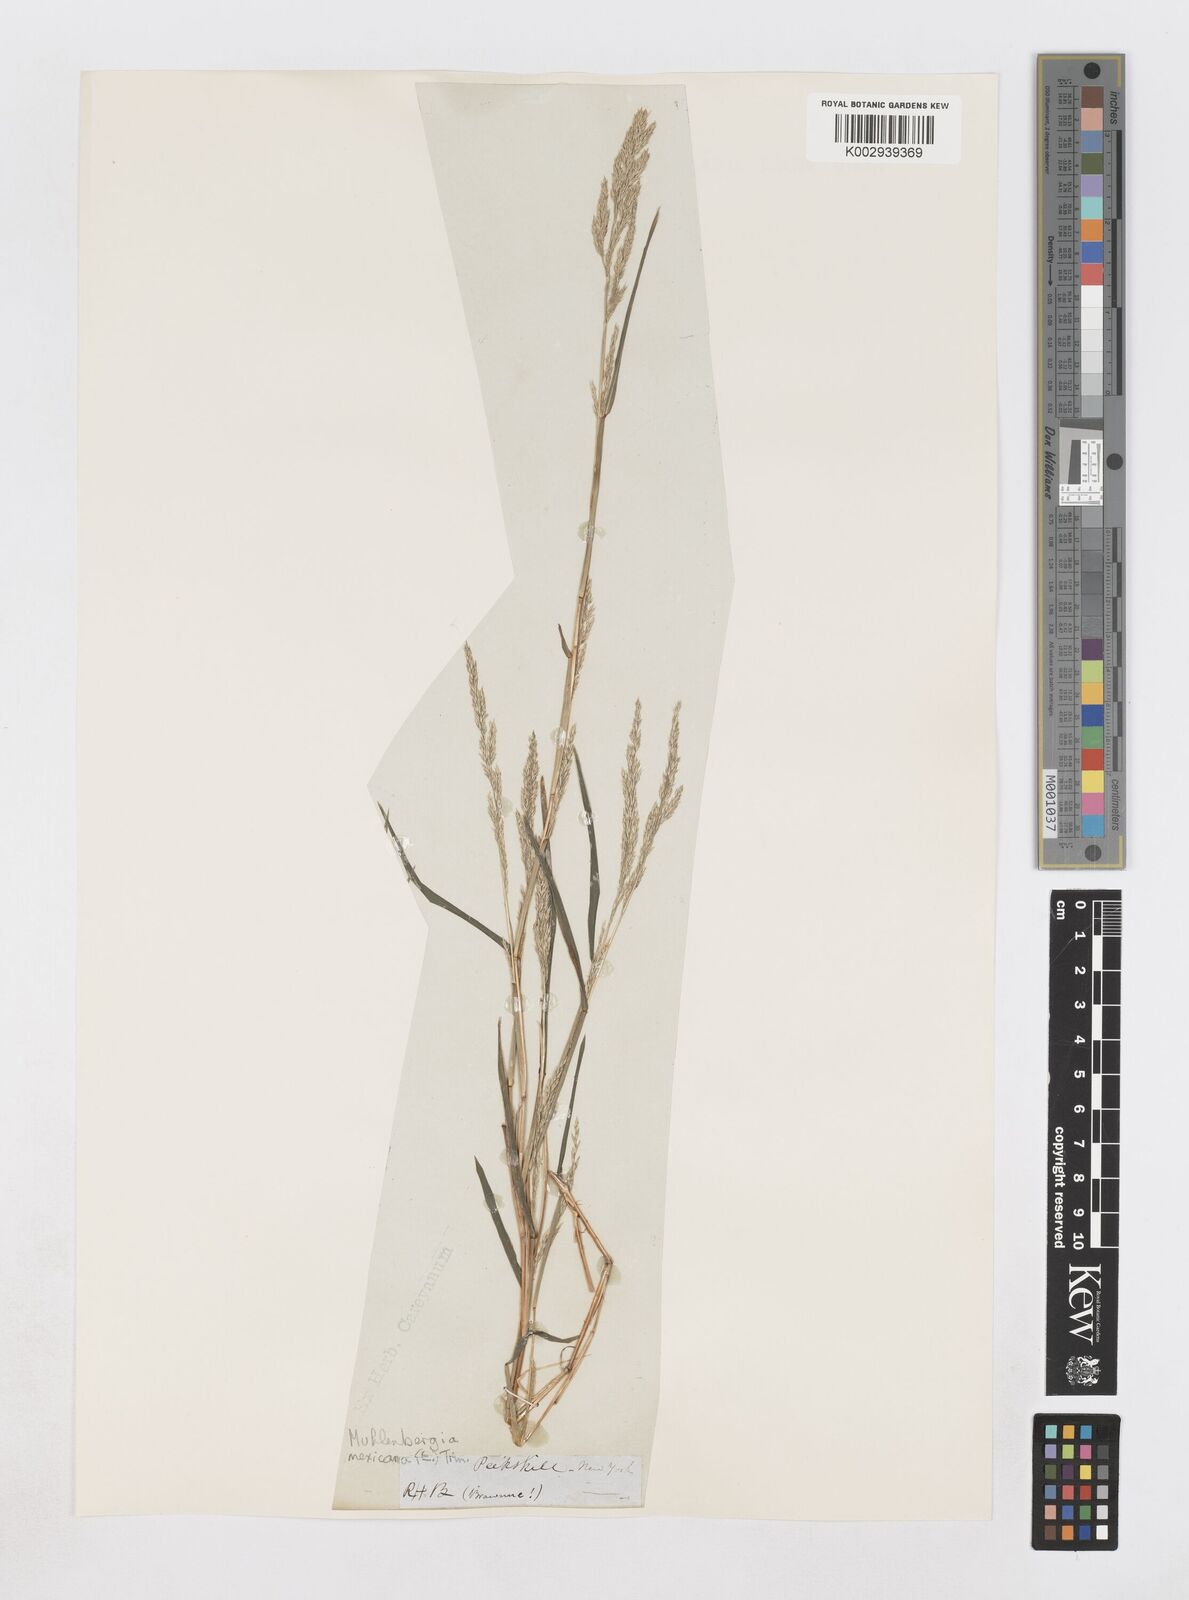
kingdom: Plantae
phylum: Tracheophyta
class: Liliopsida
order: Poales
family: Poaceae
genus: Muhlenbergia
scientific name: Muhlenbergia mexicana
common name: Mexican muhly
